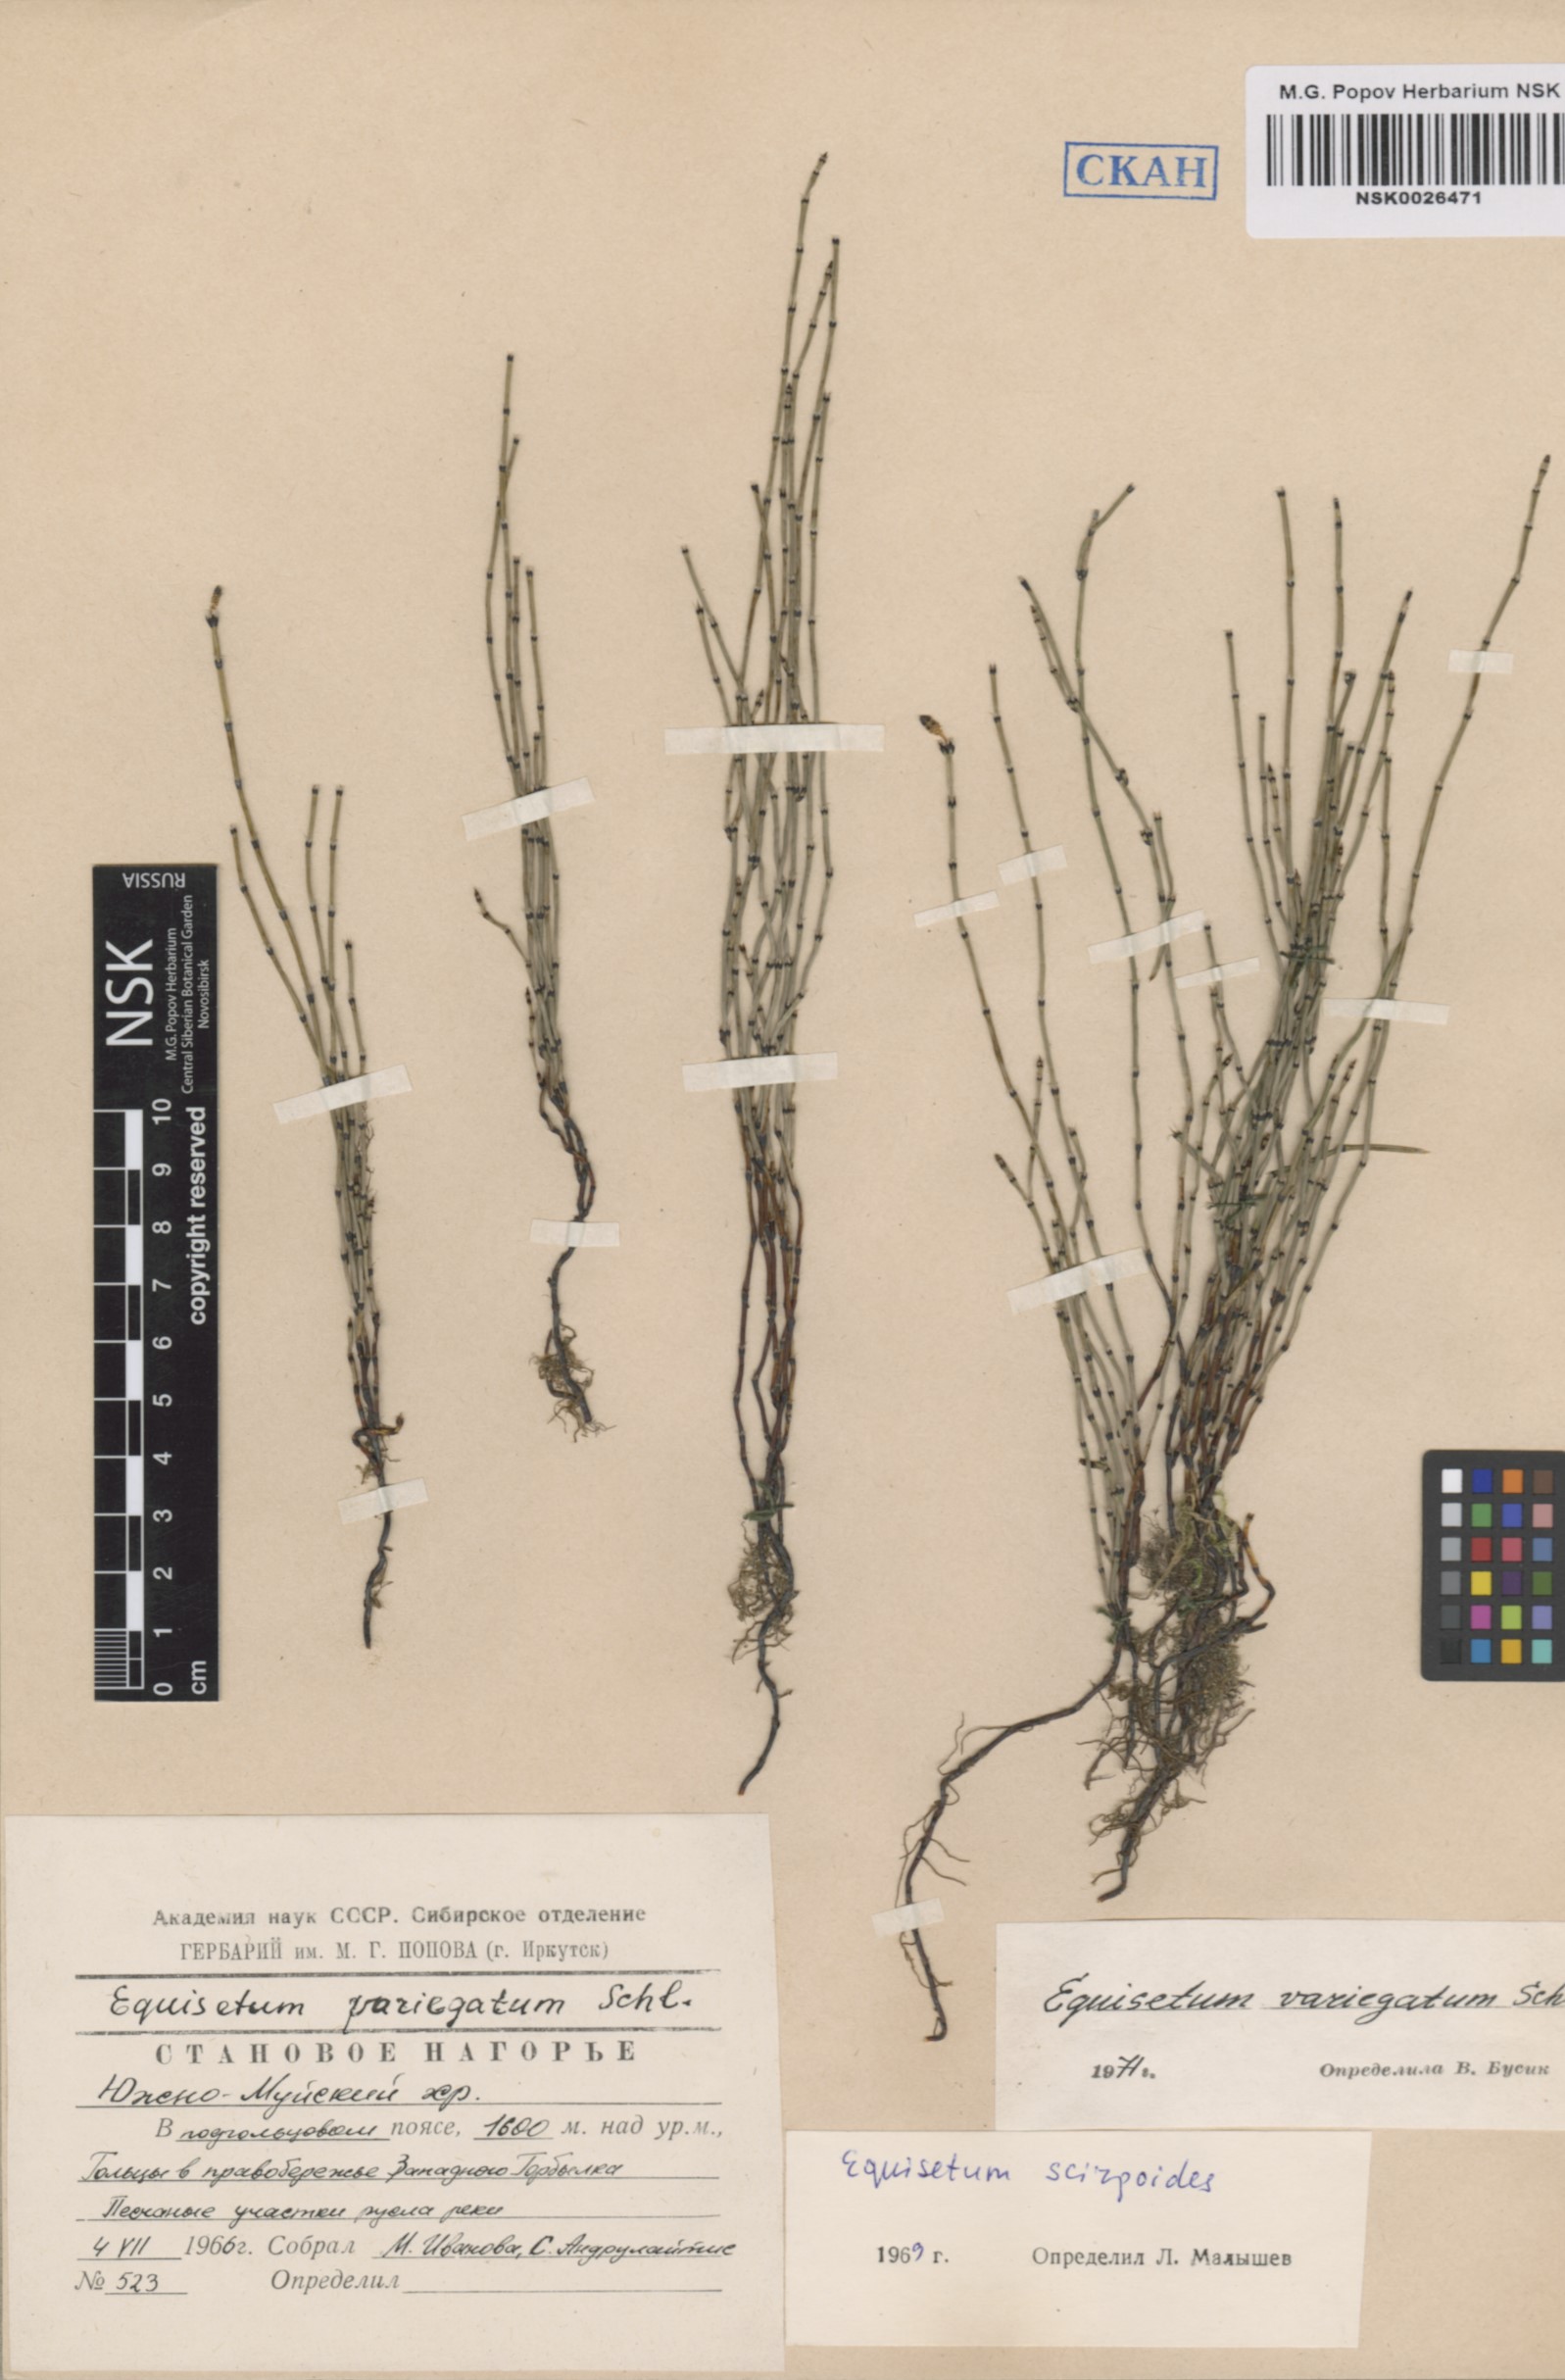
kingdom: Plantae
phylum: Tracheophyta
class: Polypodiopsida
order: Equisetales
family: Equisetaceae
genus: Equisetum
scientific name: Equisetum variegatum
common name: Variegated horsetail
